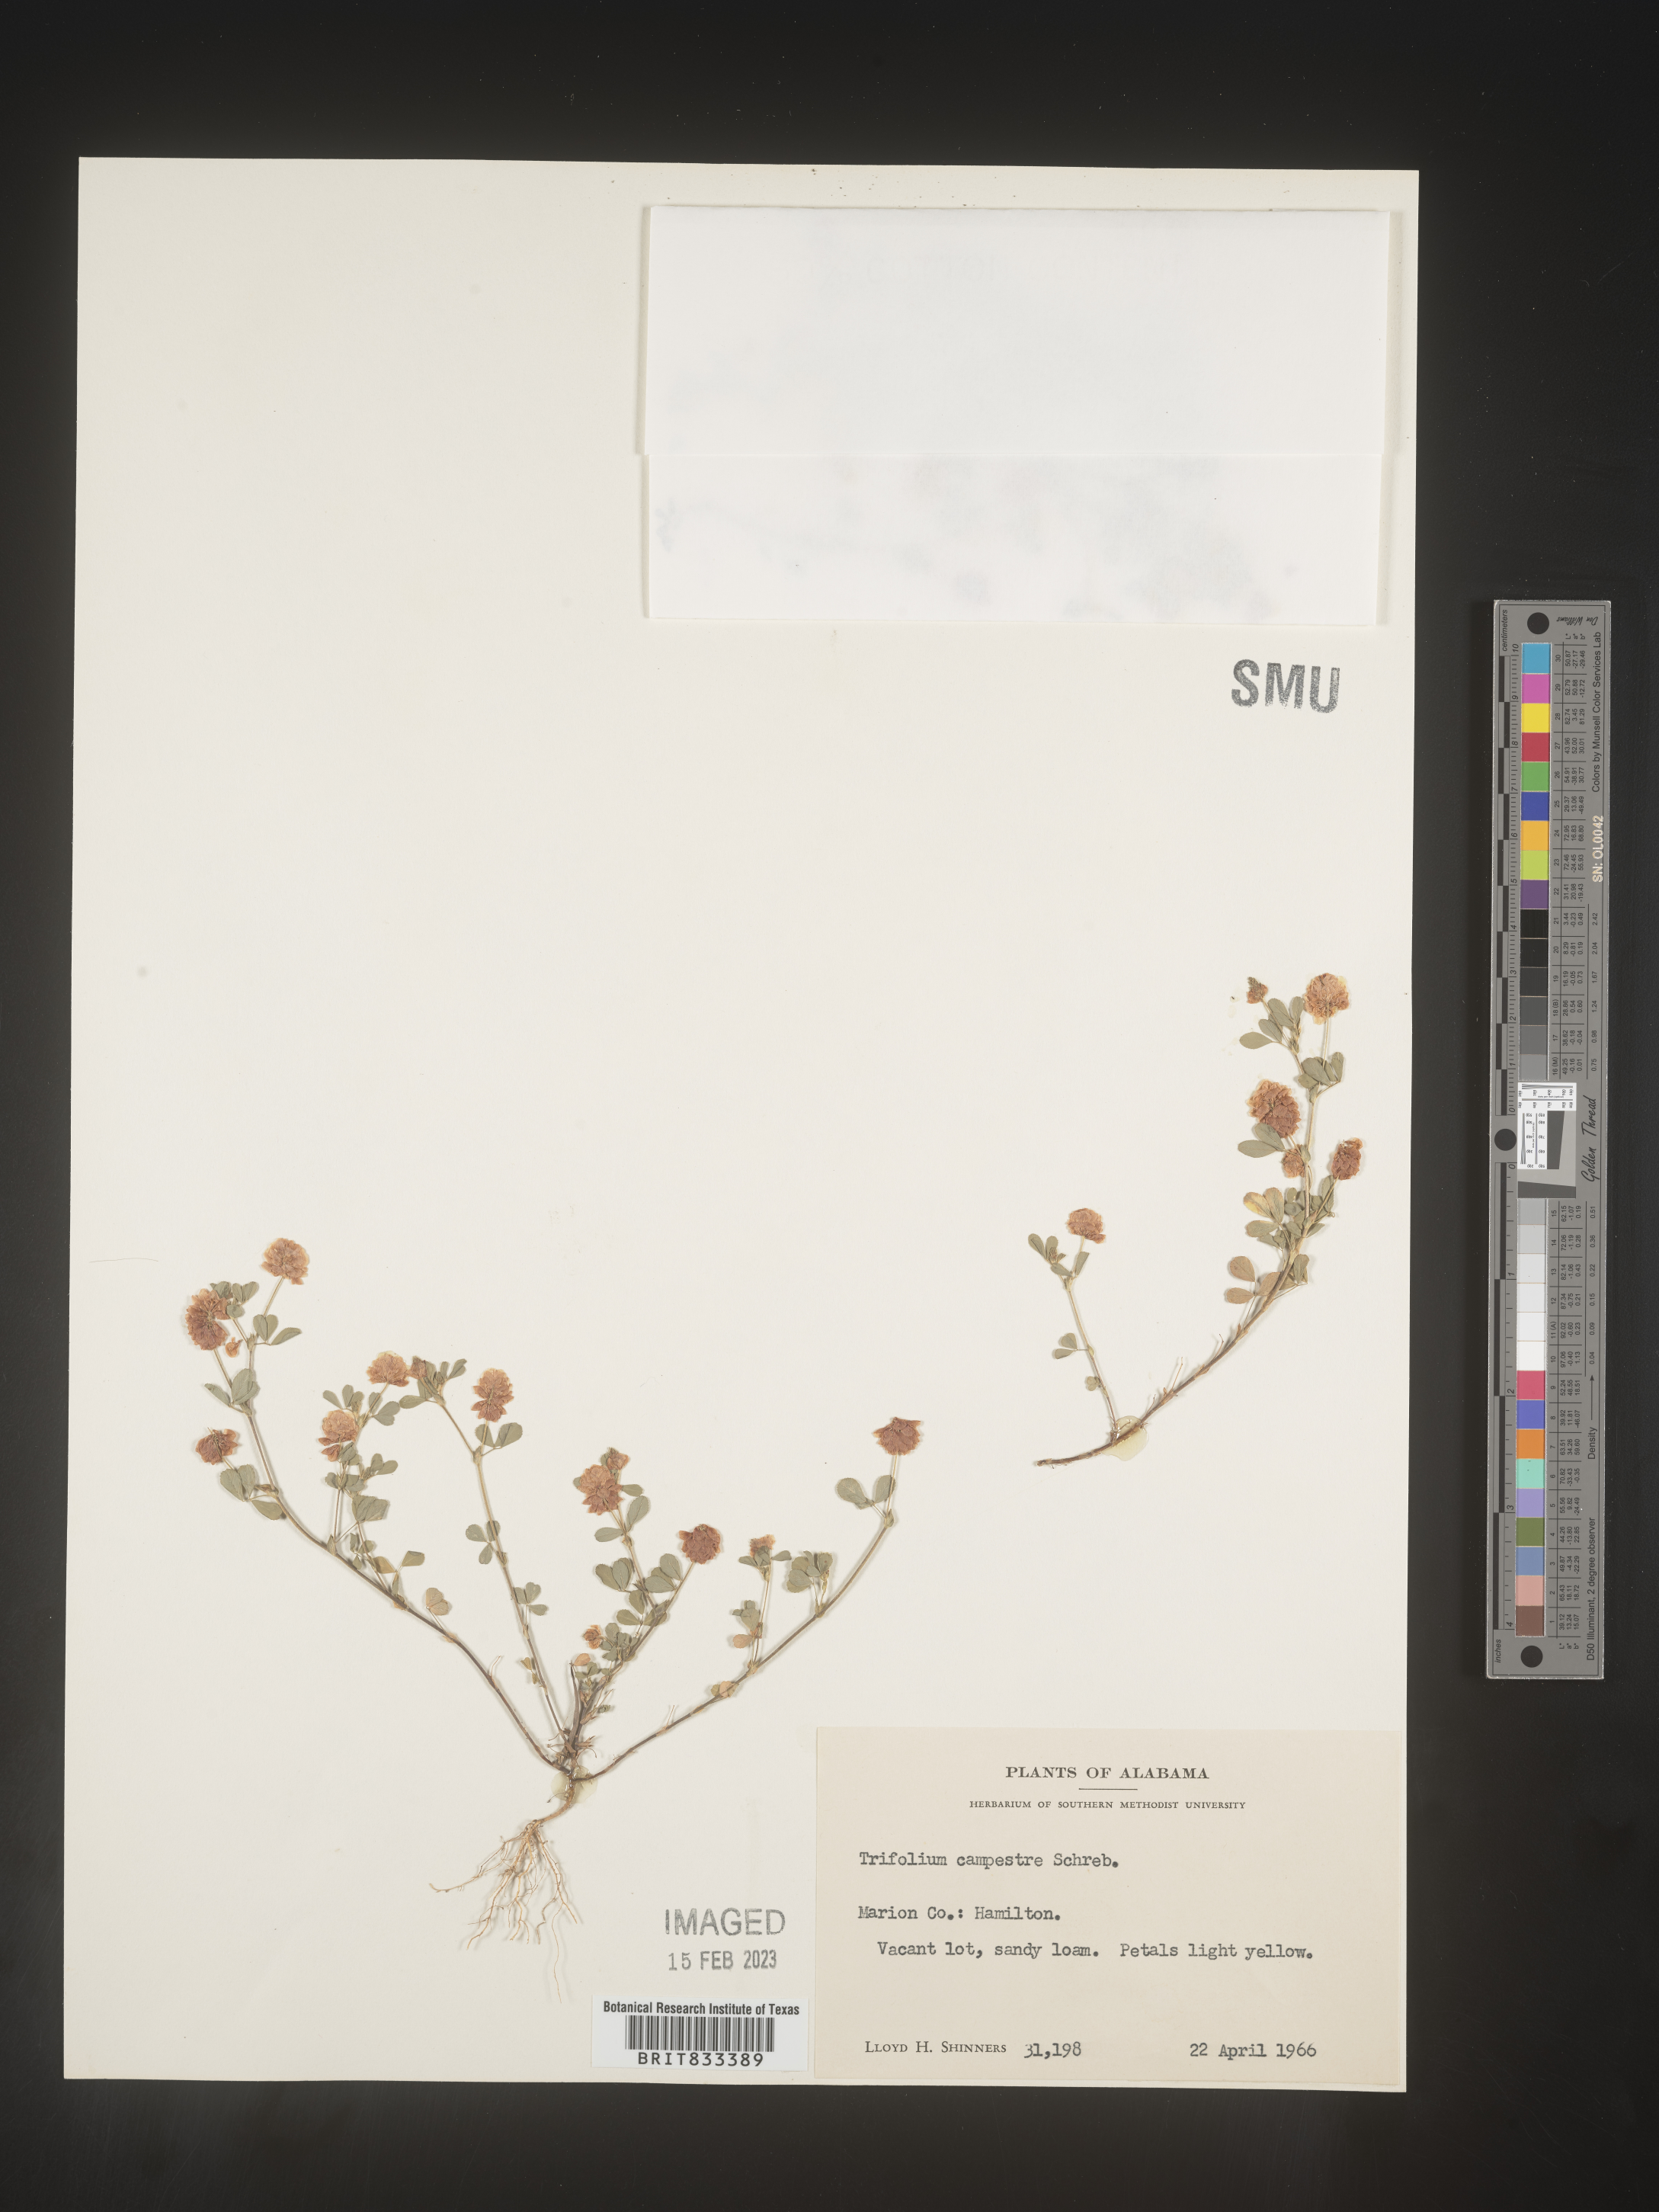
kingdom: Plantae
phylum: Tracheophyta
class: Magnoliopsida
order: Fabales
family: Fabaceae
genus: Trifolium
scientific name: Trifolium campestre
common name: Field clover
